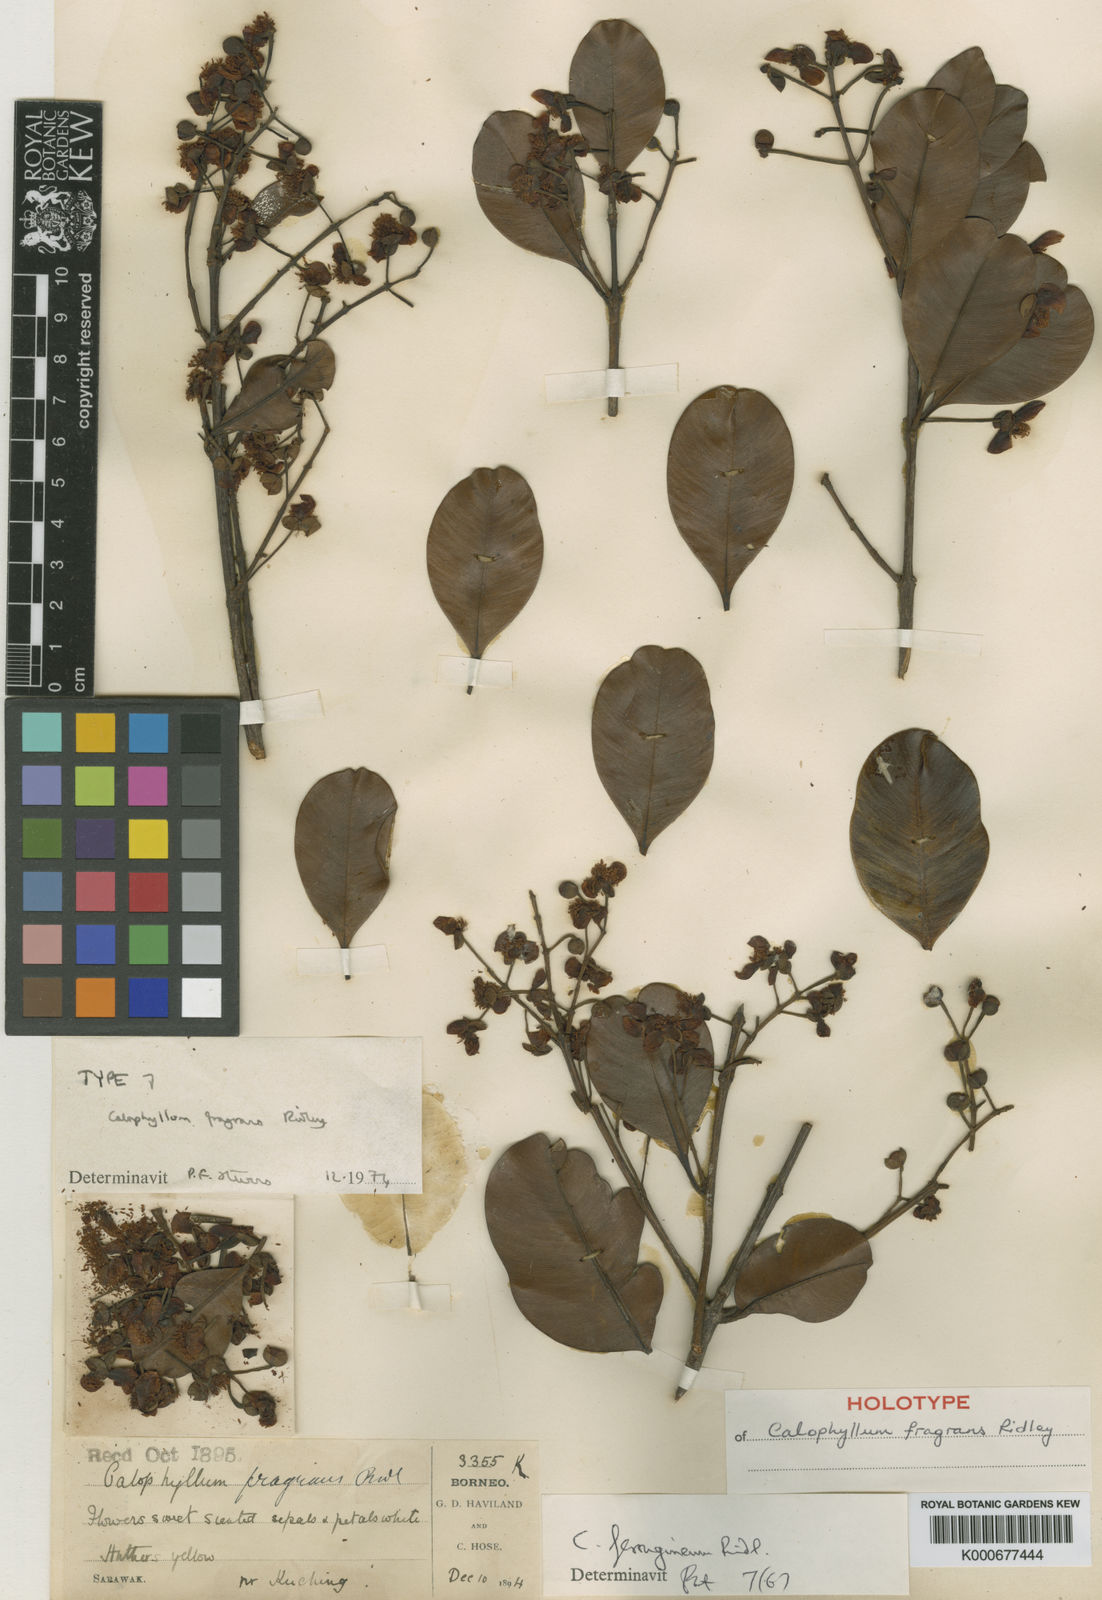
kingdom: Plantae
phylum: Tracheophyta
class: Magnoliopsida
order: Malpighiales
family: Calophyllaceae
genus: Calophyllum
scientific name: Calophyllum hosei
